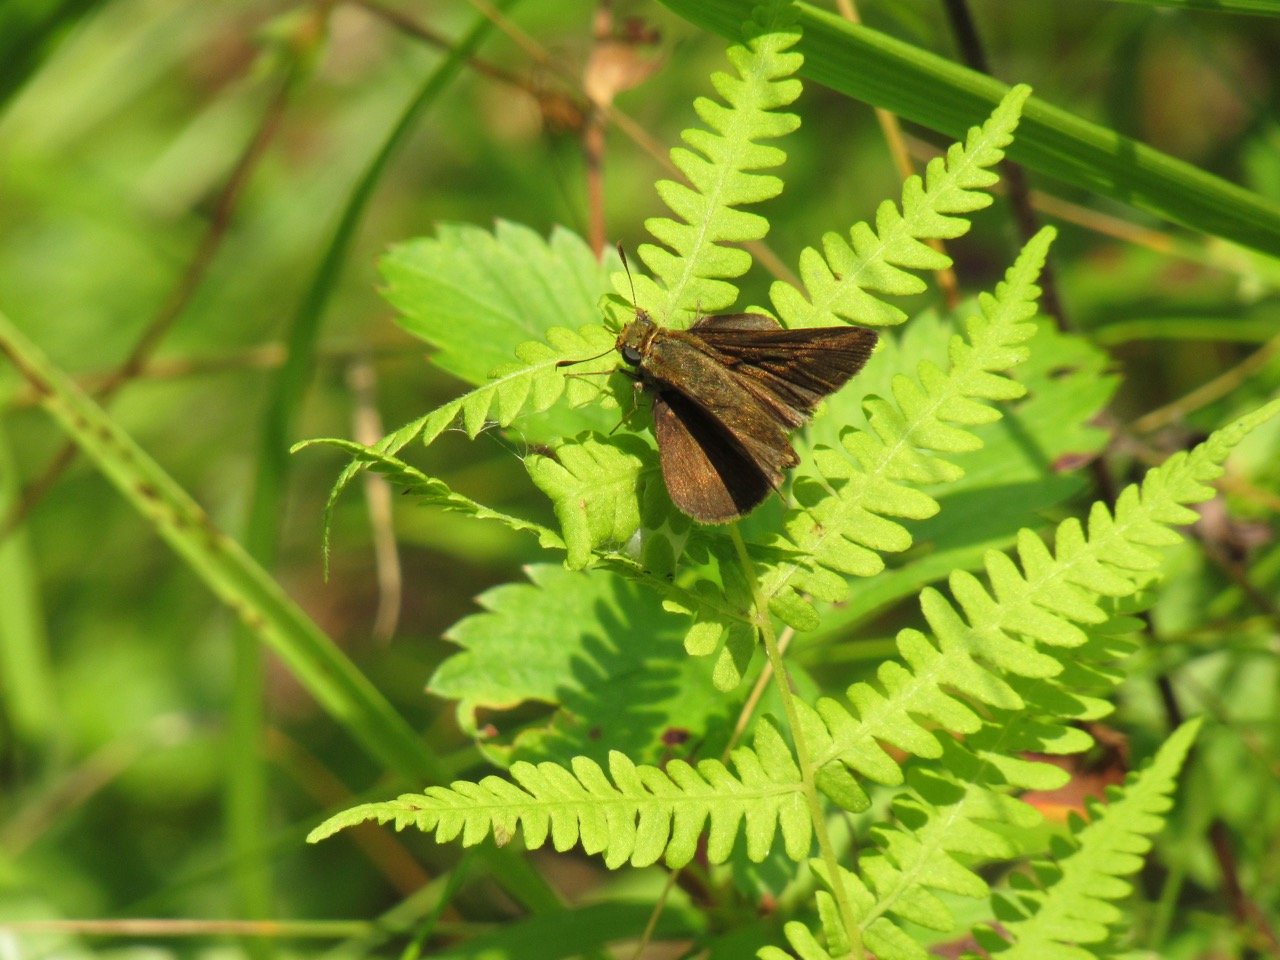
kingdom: Animalia
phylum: Arthropoda
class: Insecta
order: Lepidoptera
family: Hesperiidae
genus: Euphyes
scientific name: Euphyes vestris
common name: Dun Skipper
